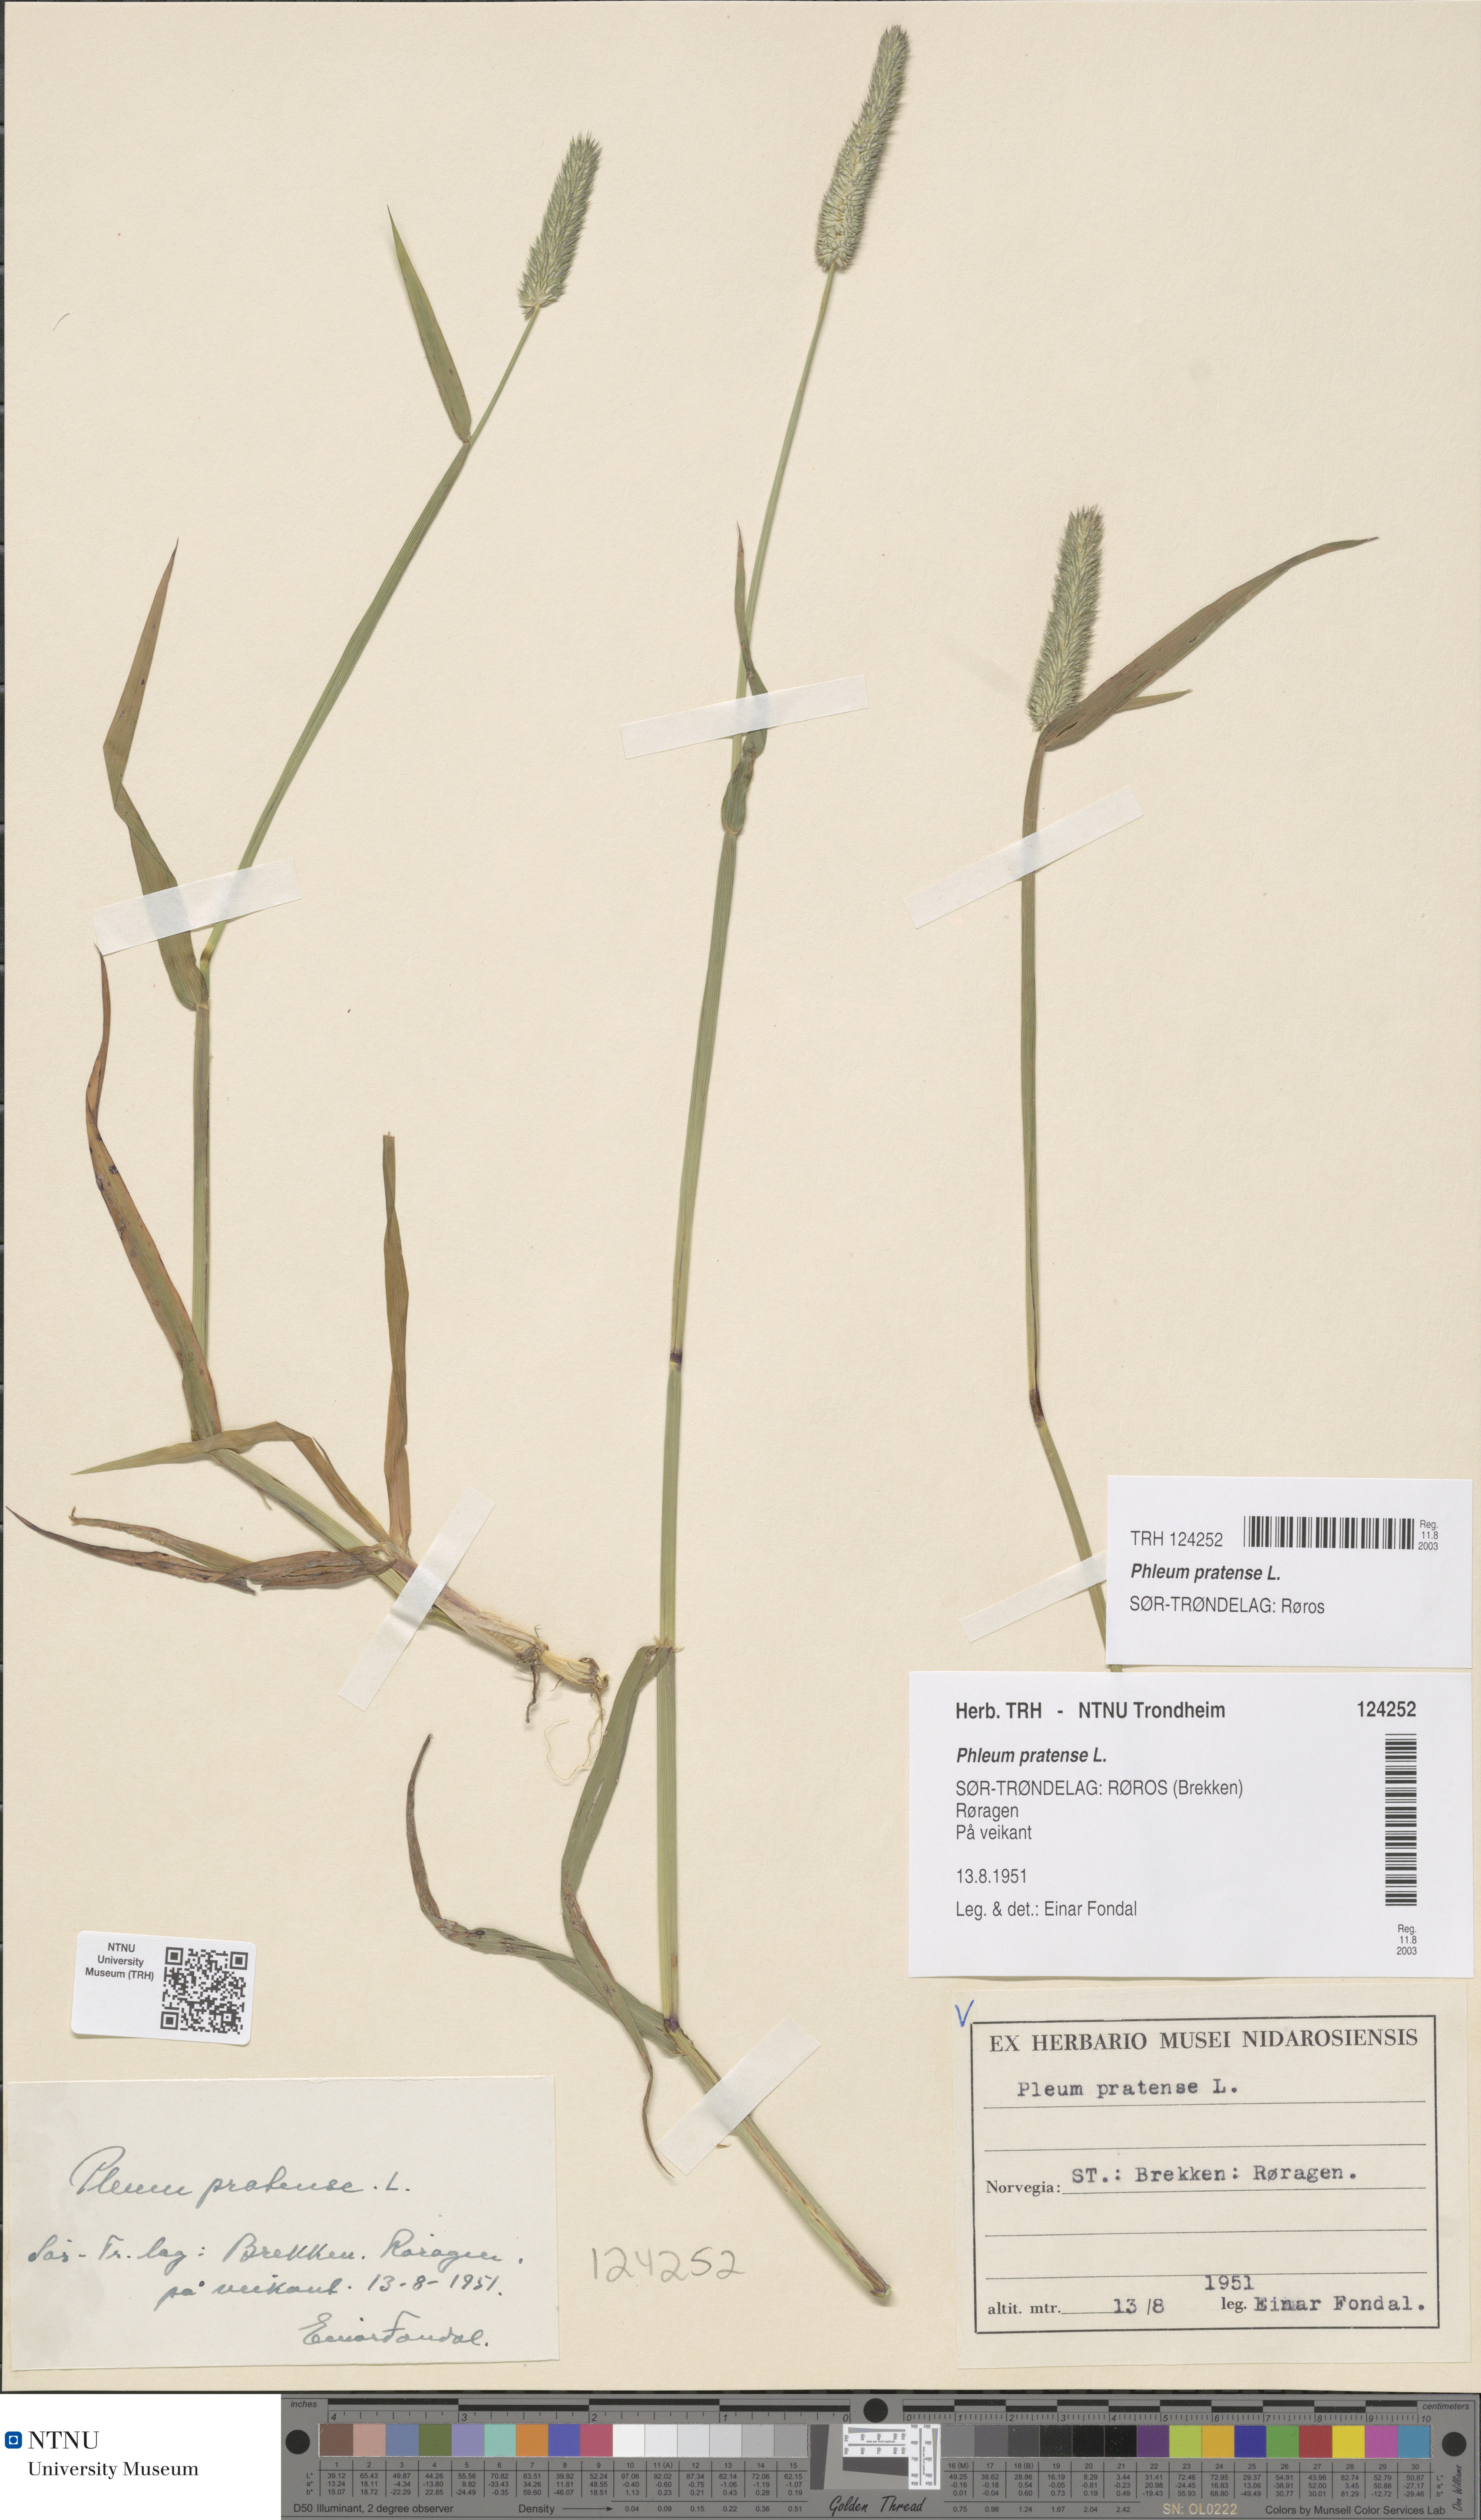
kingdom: Plantae
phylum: Tracheophyta
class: Liliopsida
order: Poales
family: Poaceae
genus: Phleum
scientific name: Phleum pratense
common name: Timothy grass
